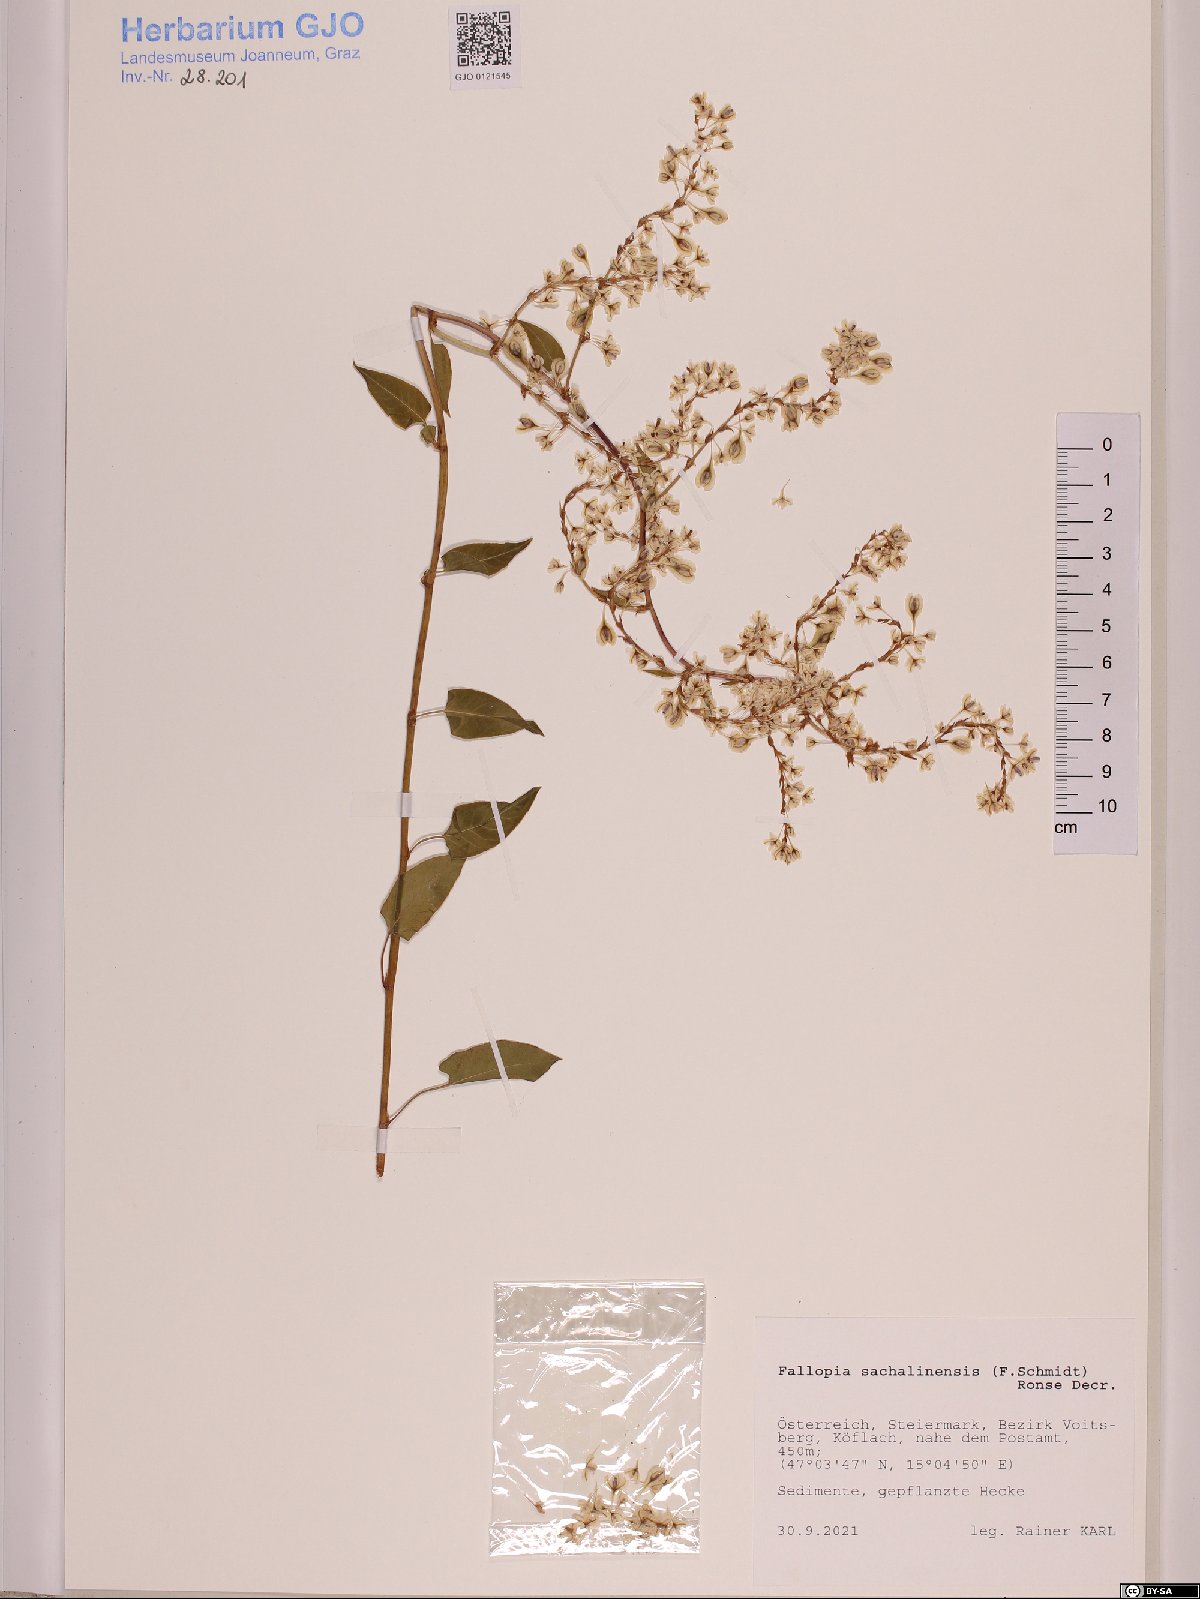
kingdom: Plantae
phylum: Tracheophyta
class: Magnoliopsida
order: Caryophyllales
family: Polygonaceae
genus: Reynoutria
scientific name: Reynoutria sachalinensis
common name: Giant knotweed
